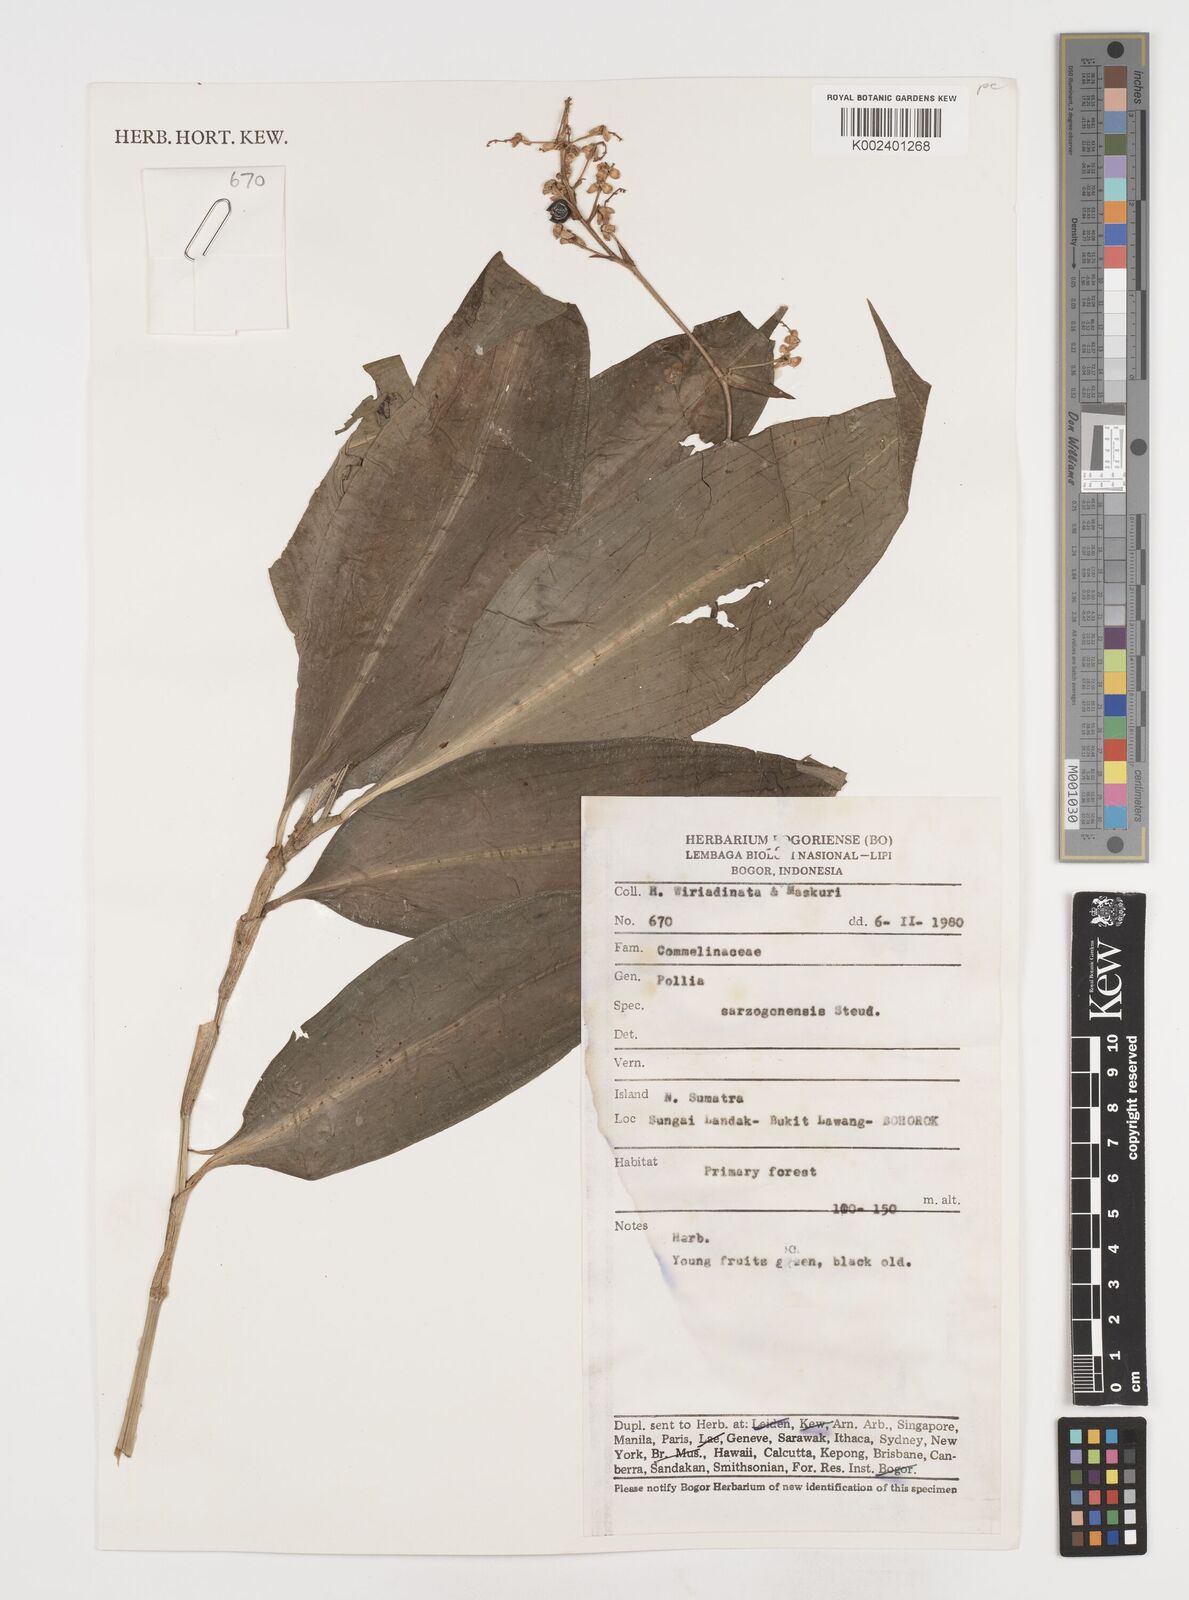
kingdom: Plantae
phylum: Tracheophyta
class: Liliopsida
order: Commelinales
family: Commelinaceae
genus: Pollia
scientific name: Pollia secundiflora
